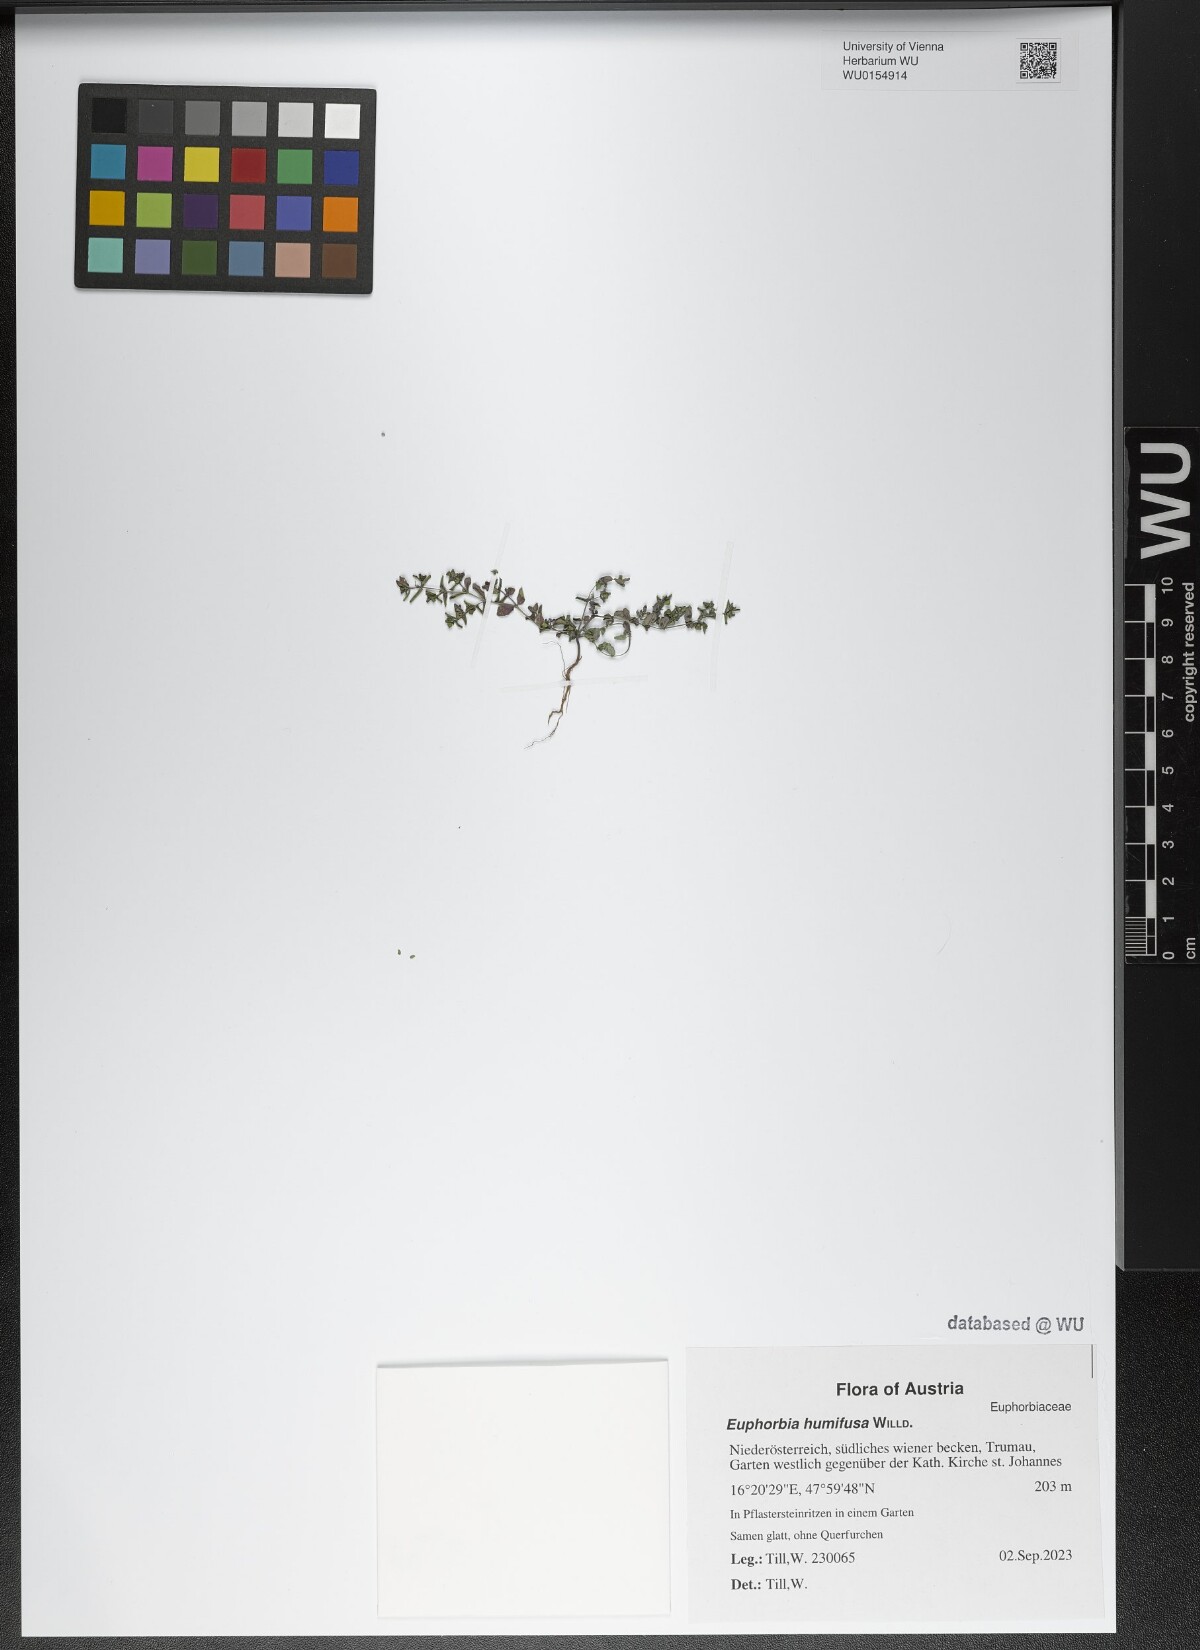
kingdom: Plantae
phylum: Tracheophyta
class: Magnoliopsida
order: Malpighiales
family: Euphorbiaceae
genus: Euphorbia
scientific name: Euphorbia humifusa
